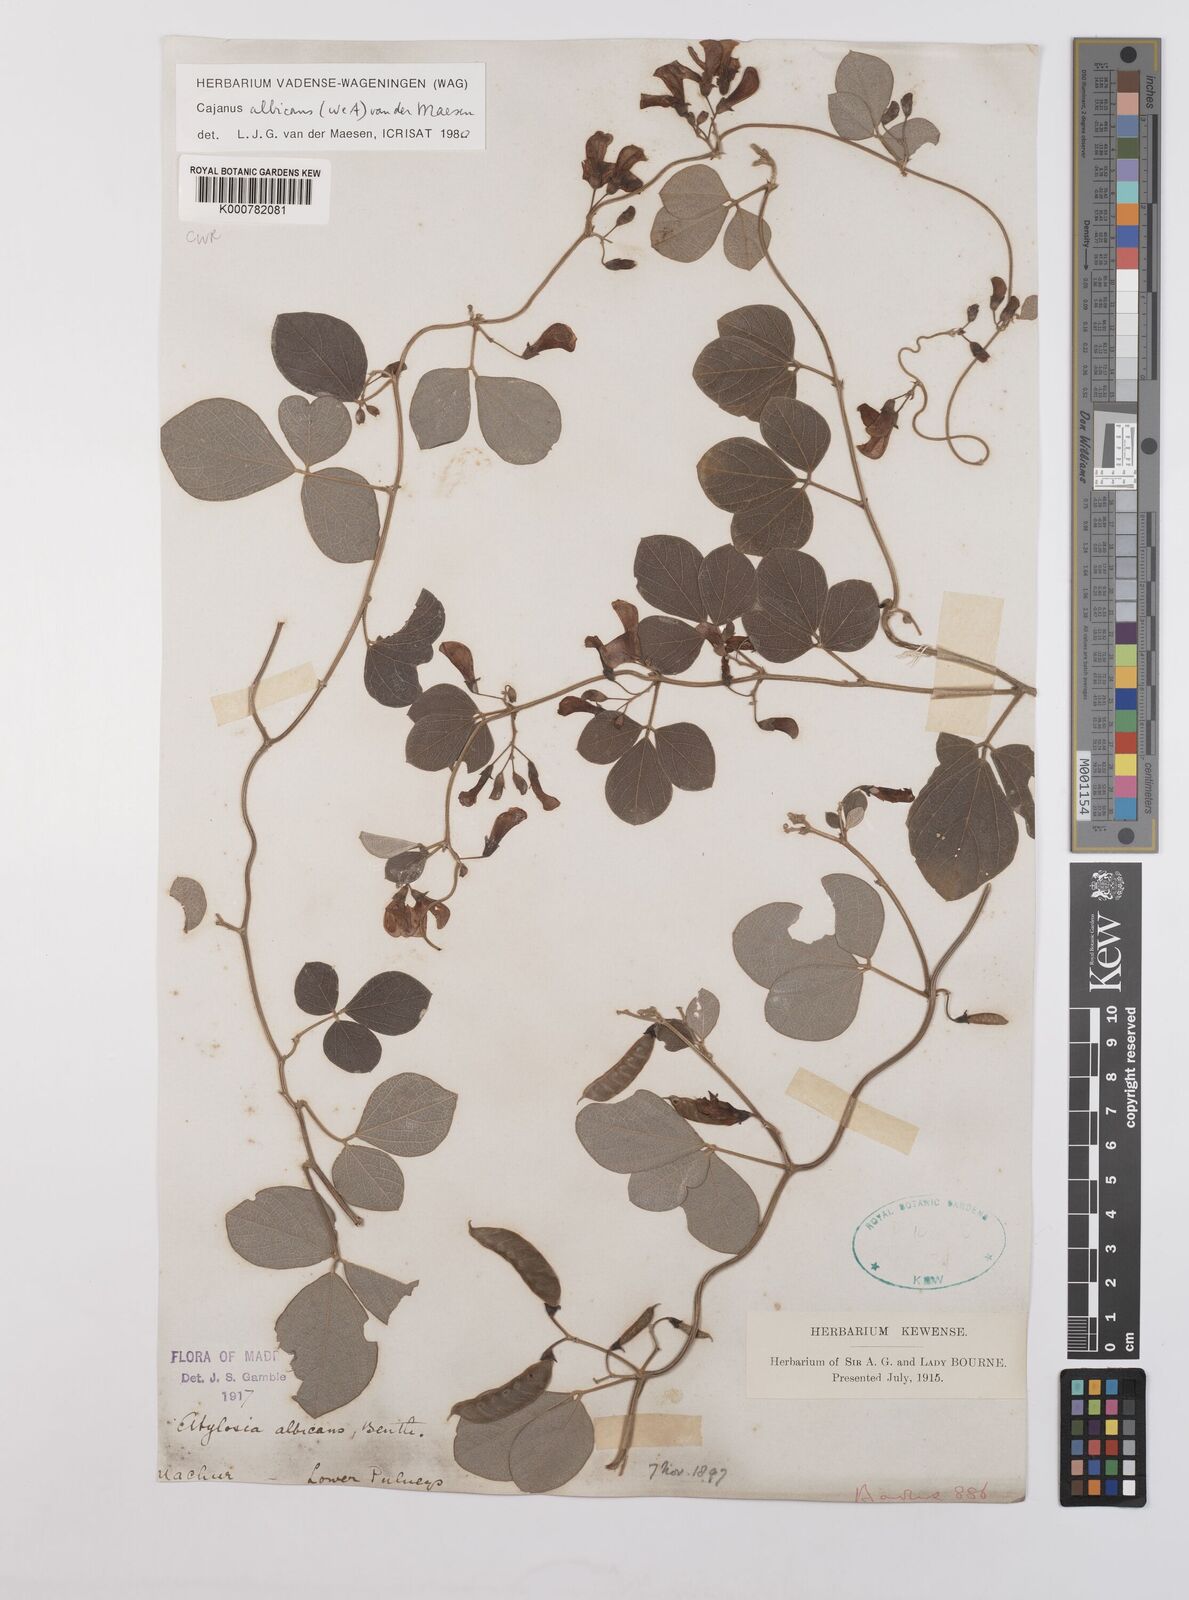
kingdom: Plantae
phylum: Tracheophyta
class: Magnoliopsida
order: Fabales
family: Fabaceae
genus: Cajanus
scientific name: Cajanus albicans
